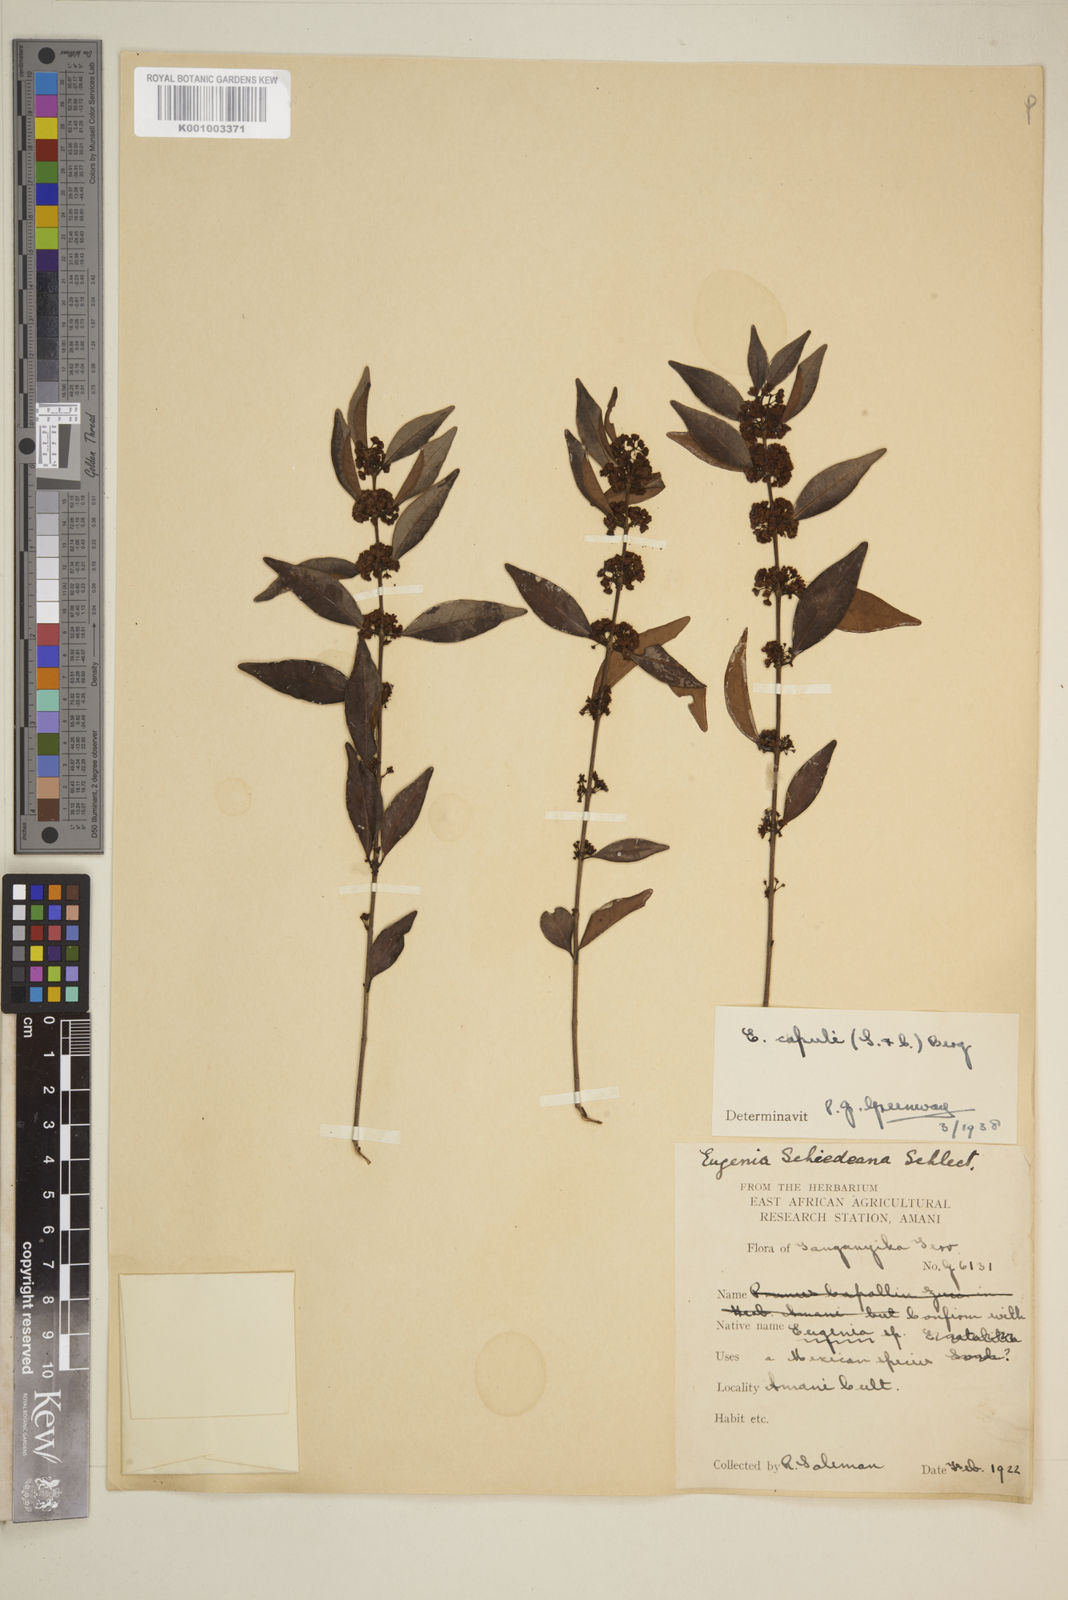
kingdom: Plantae
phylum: Tracheophyta
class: Magnoliopsida
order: Myrtales
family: Myrtaceae
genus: Eugenia
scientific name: Eugenia capuli
